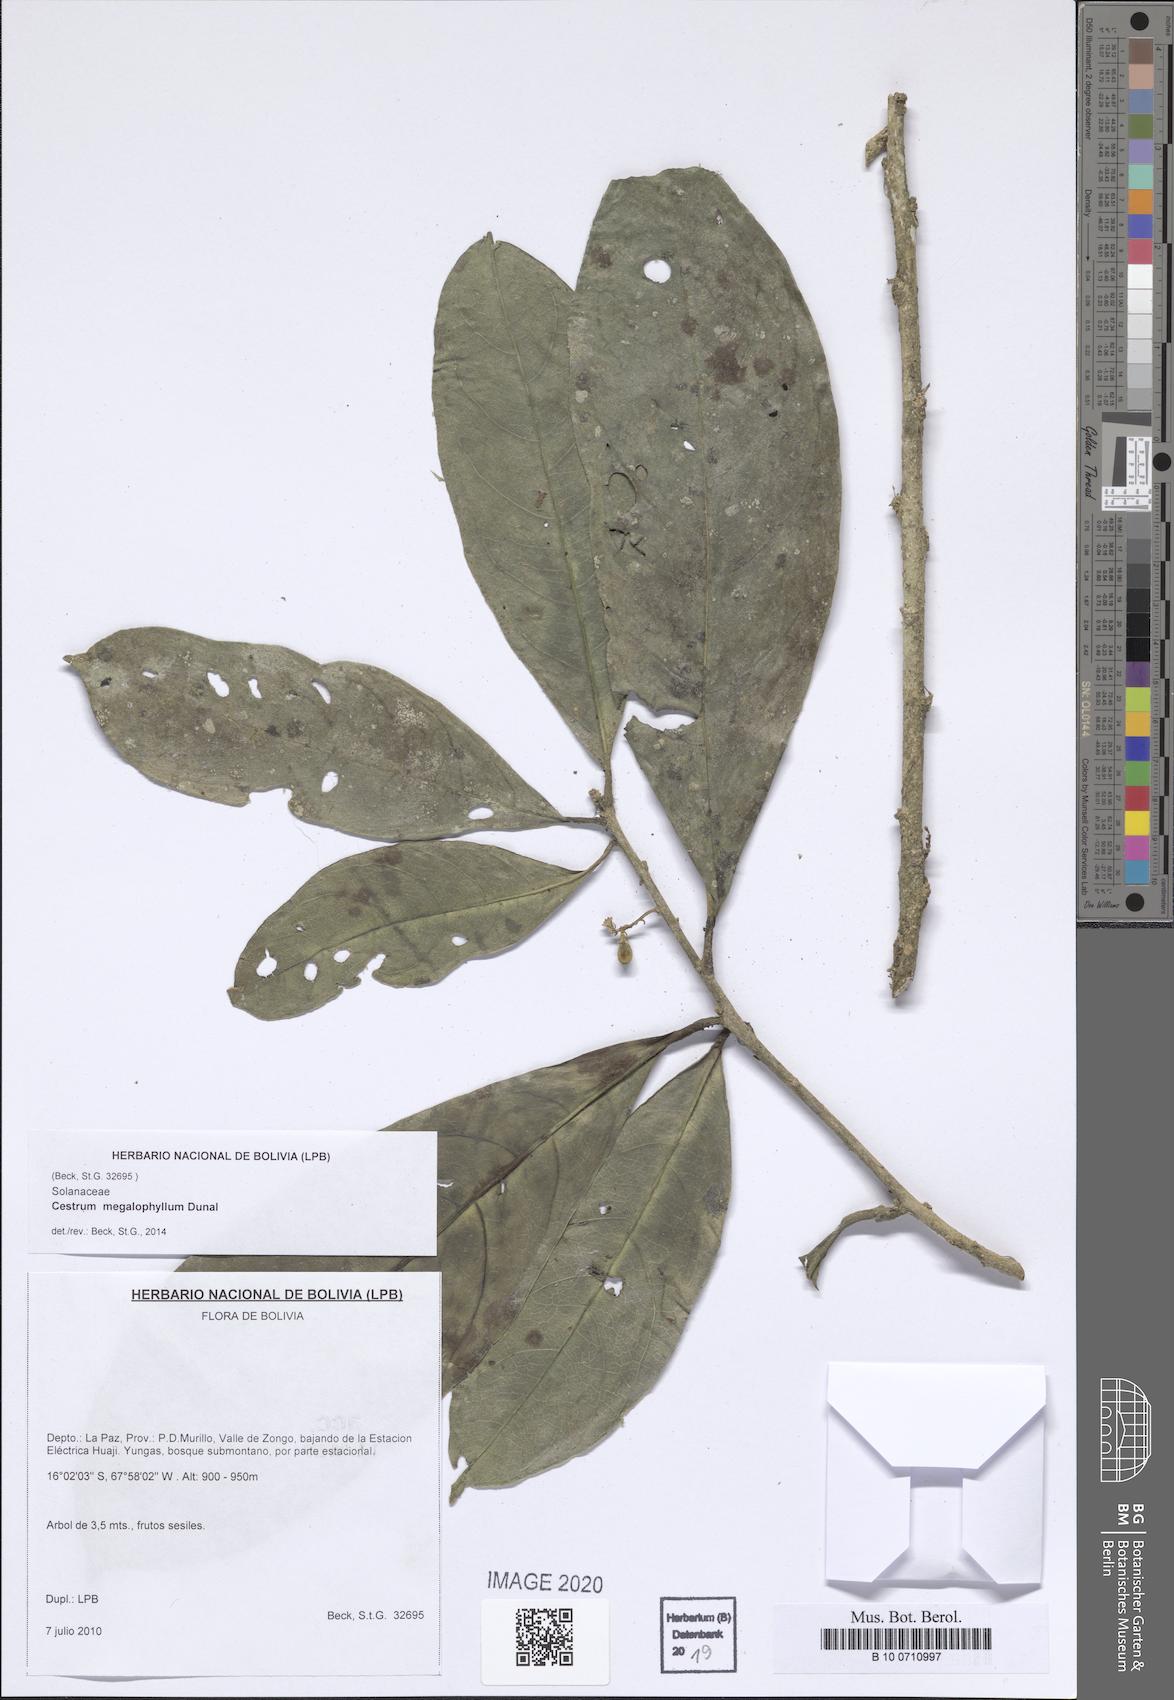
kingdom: Plantae
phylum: Tracheophyta
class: Magnoliopsida
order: Solanales
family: Solanaceae
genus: Cestrum
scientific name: Cestrum megalophyllum
